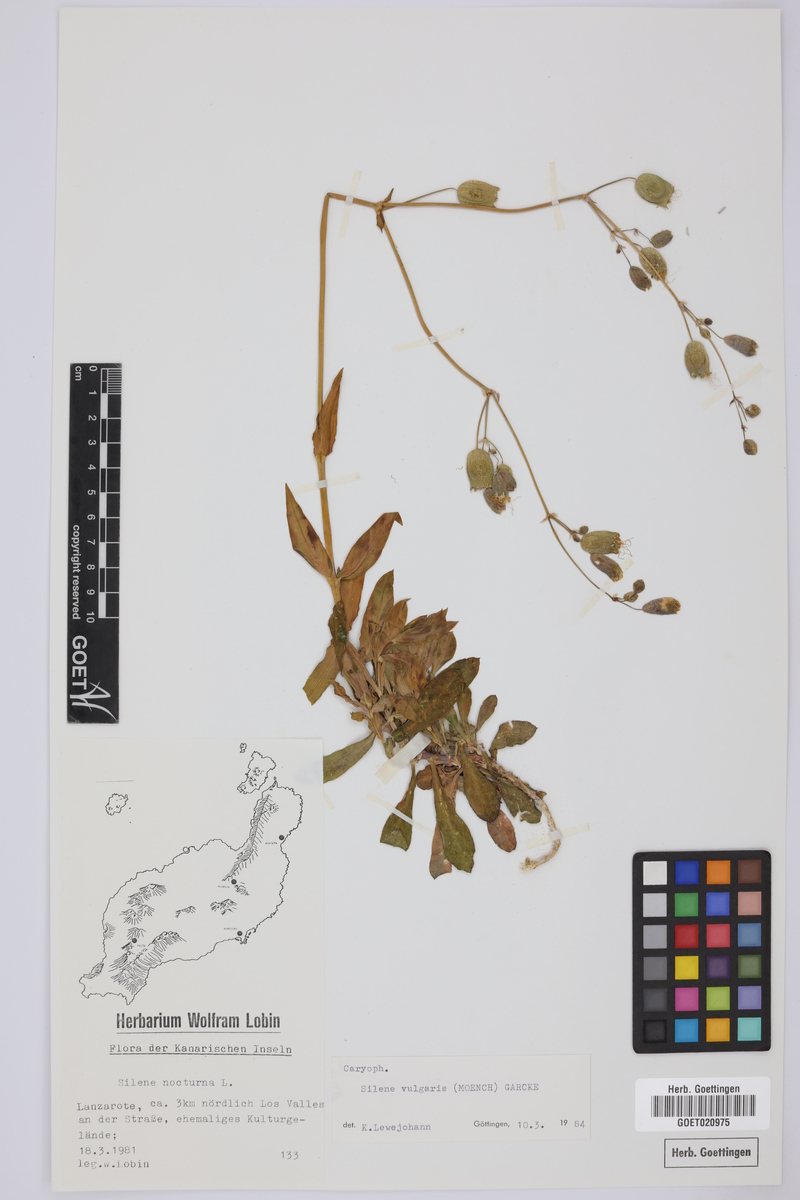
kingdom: Plantae
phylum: Tracheophyta
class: Magnoliopsida
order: Caryophyllales
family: Caryophyllaceae
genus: Silene
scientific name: Silene vulgaris
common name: Bladder campion
